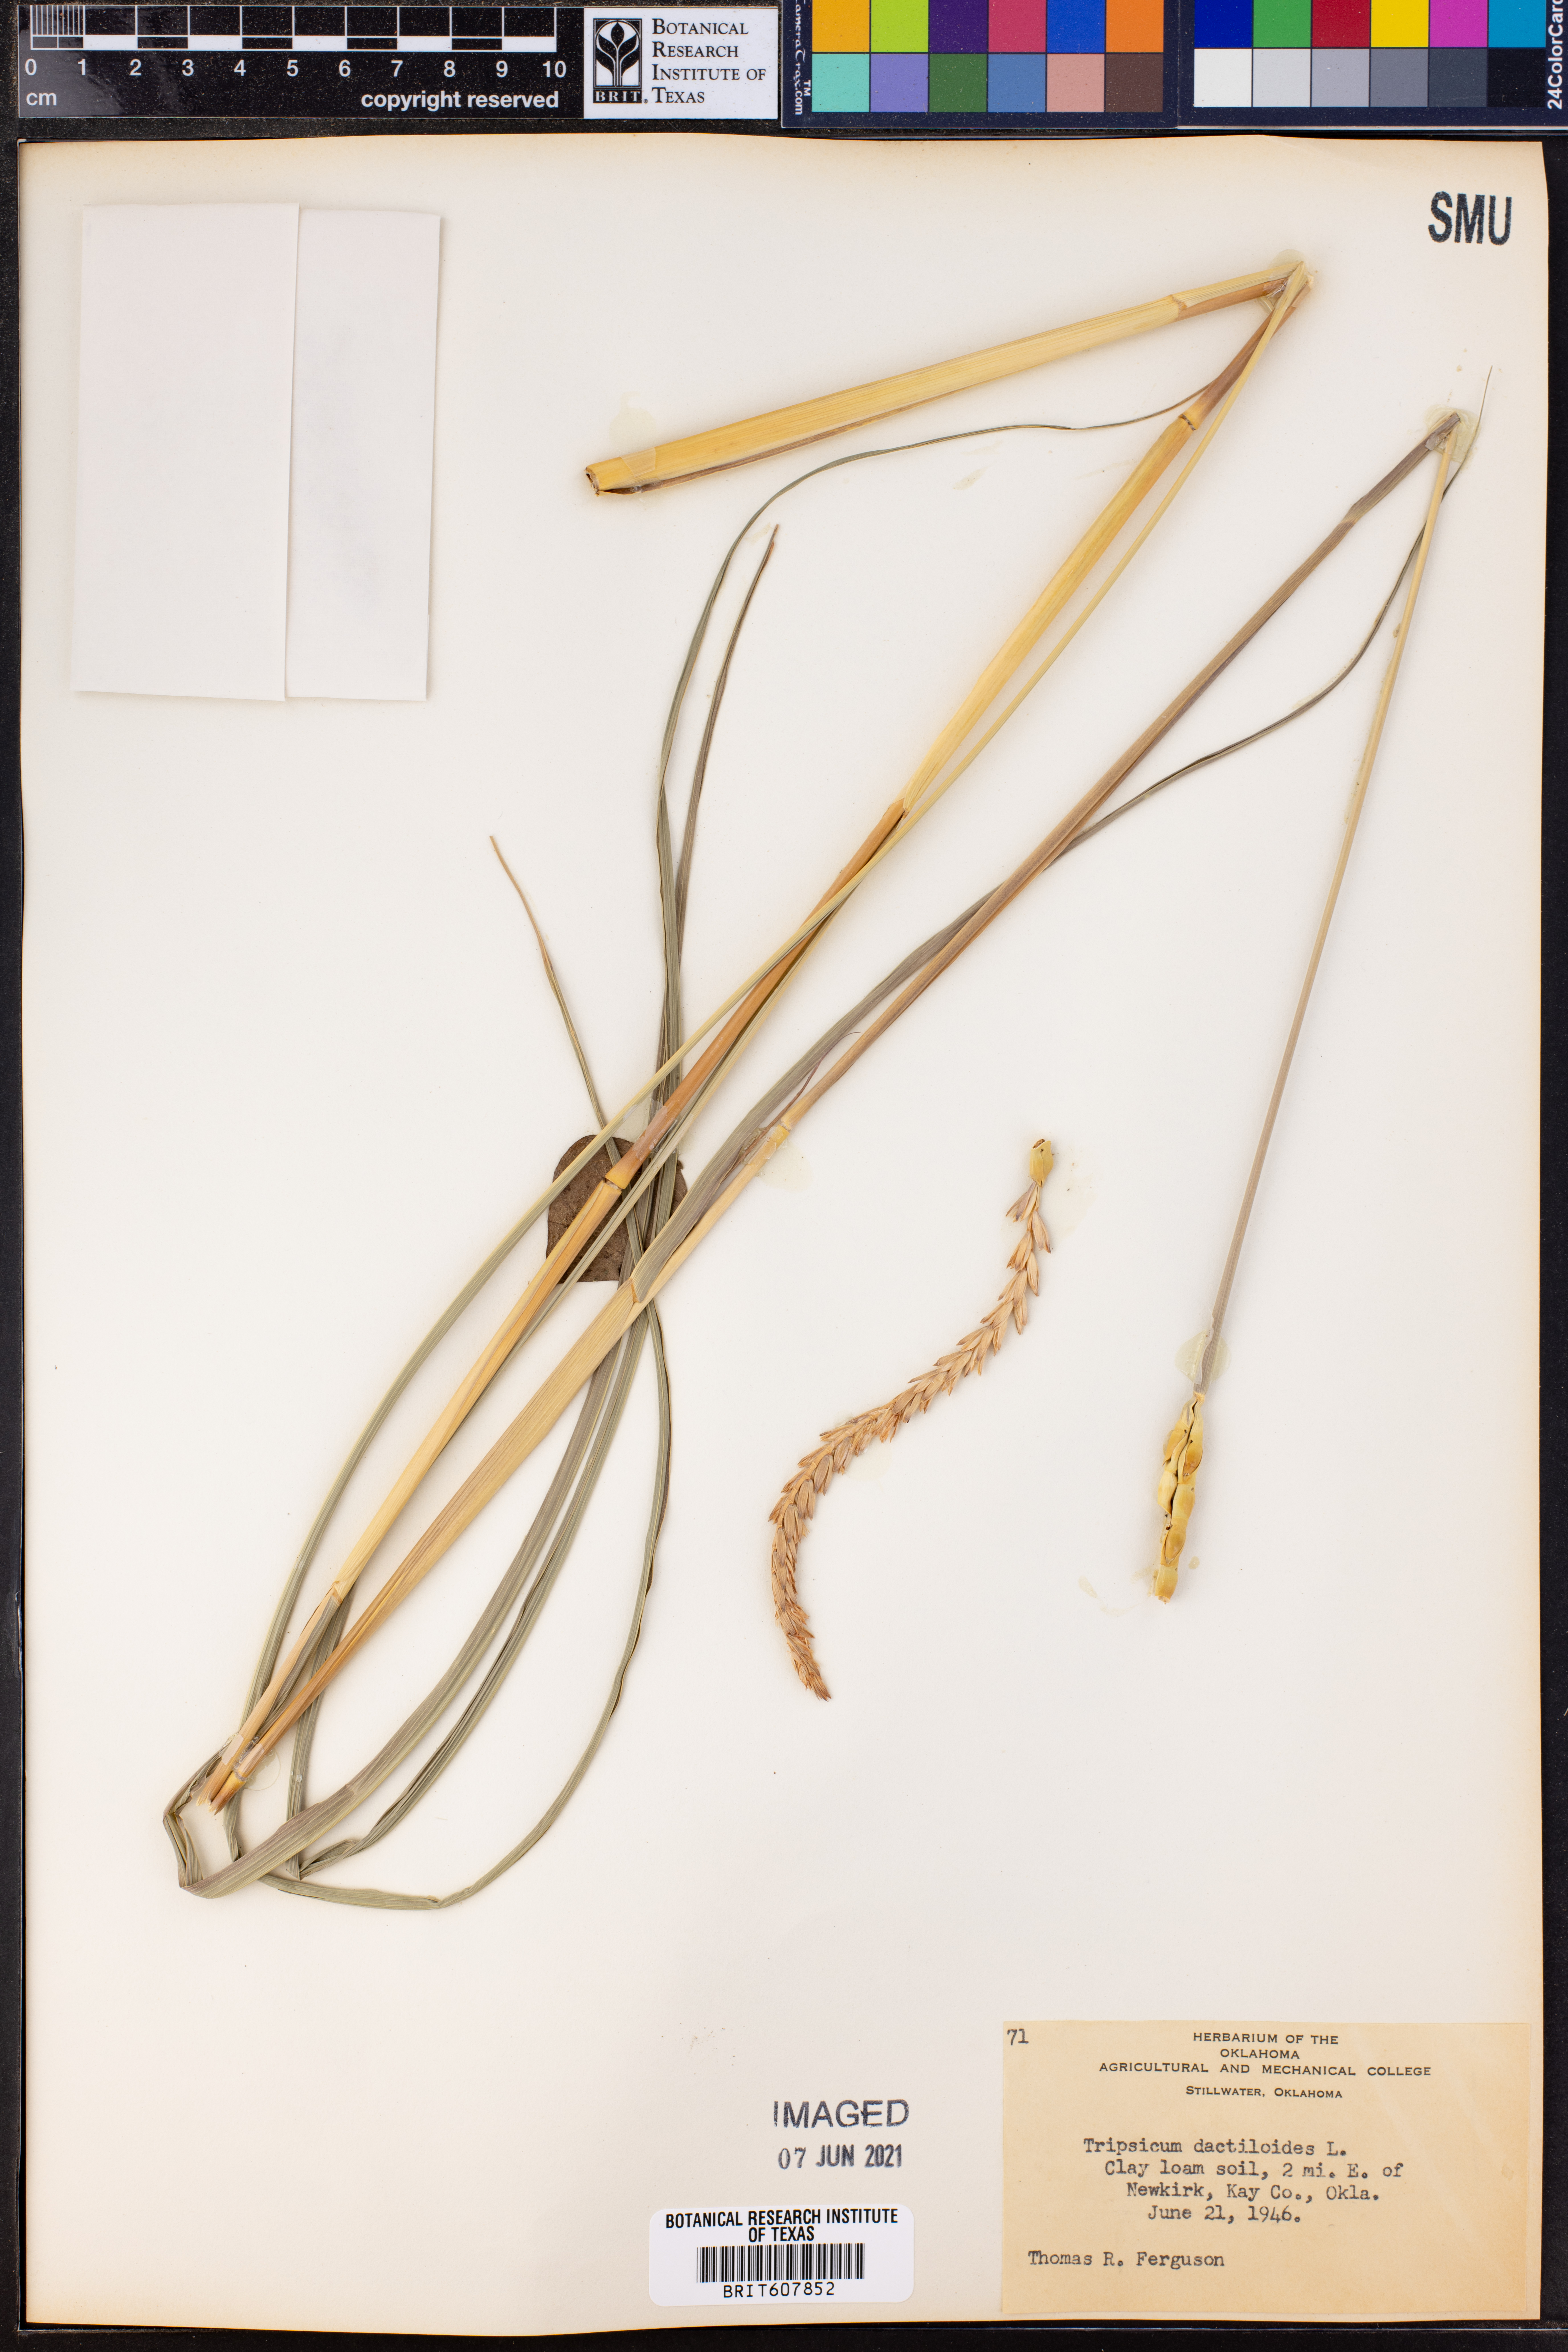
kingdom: Plantae
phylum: Tracheophyta
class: Liliopsida
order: Poales
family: Poaceae
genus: Tripsacum
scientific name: Tripsacum dactyloides
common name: Buffalo-grass
